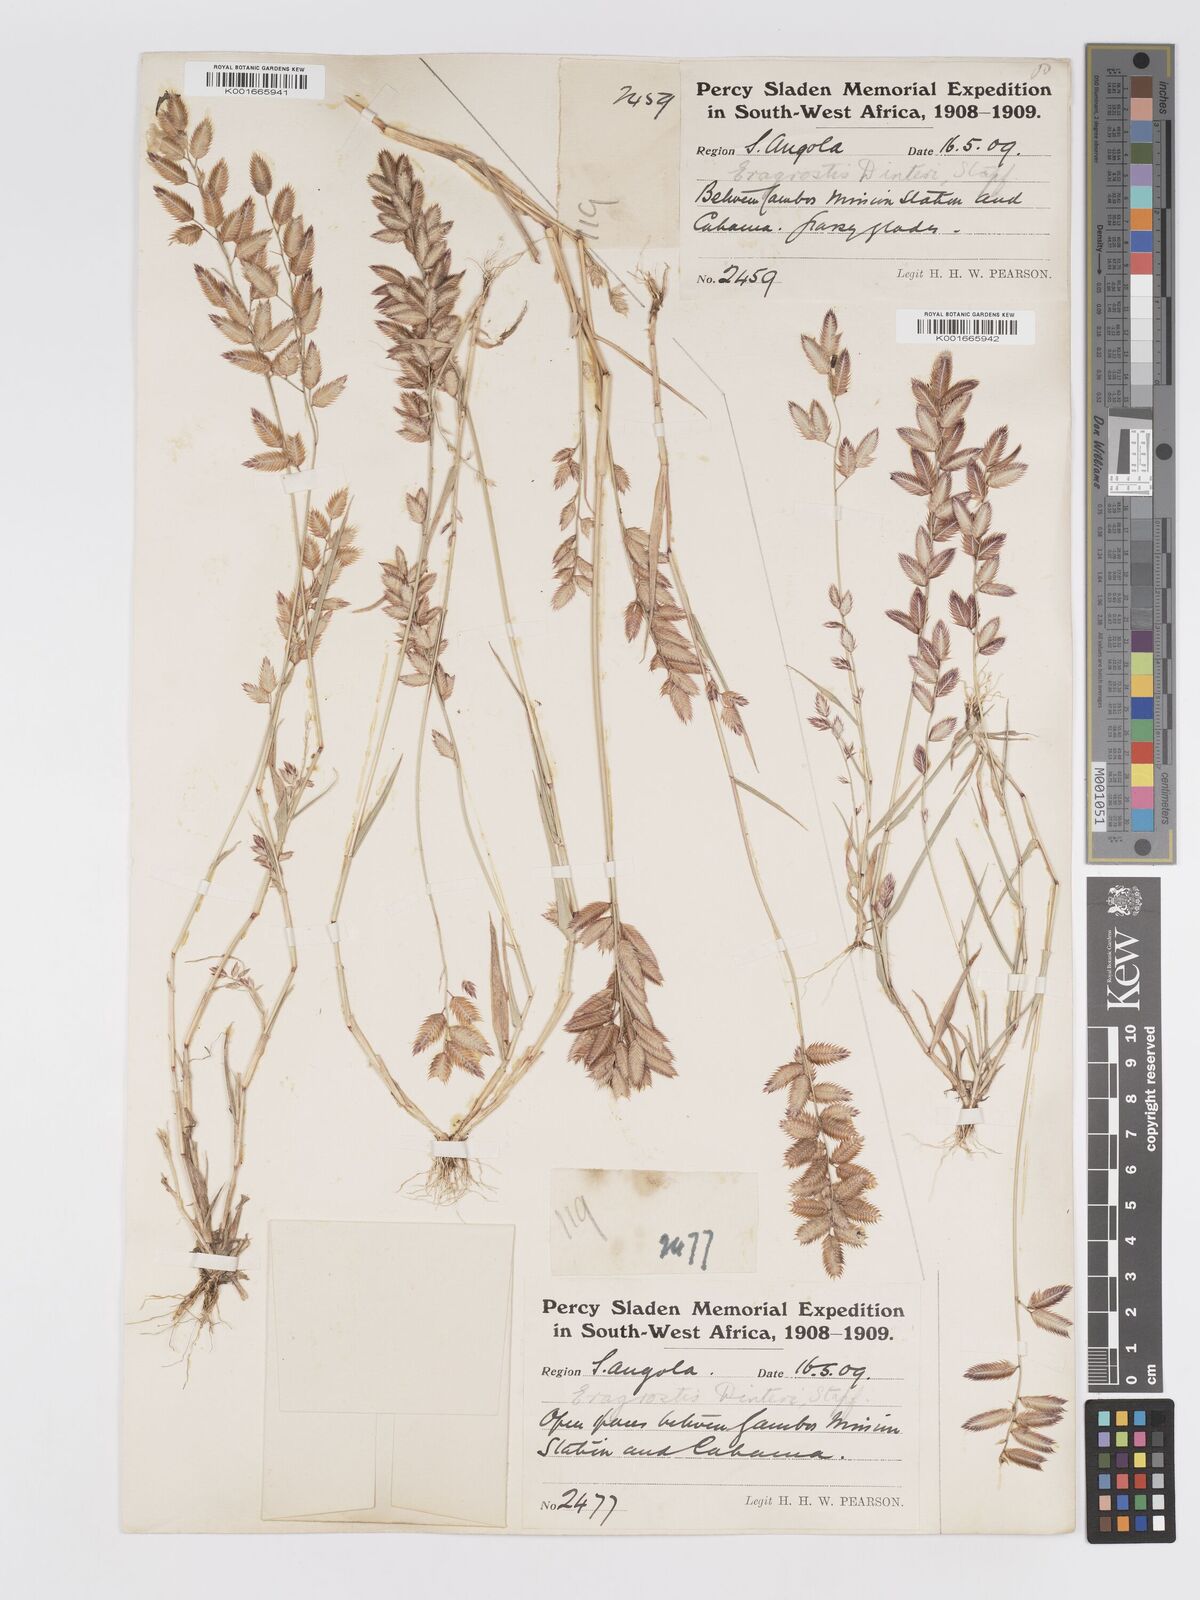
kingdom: Plantae
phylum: Tracheophyta
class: Liliopsida
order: Poales
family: Poaceae
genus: Eragrostis
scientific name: Eragrostis variegata
